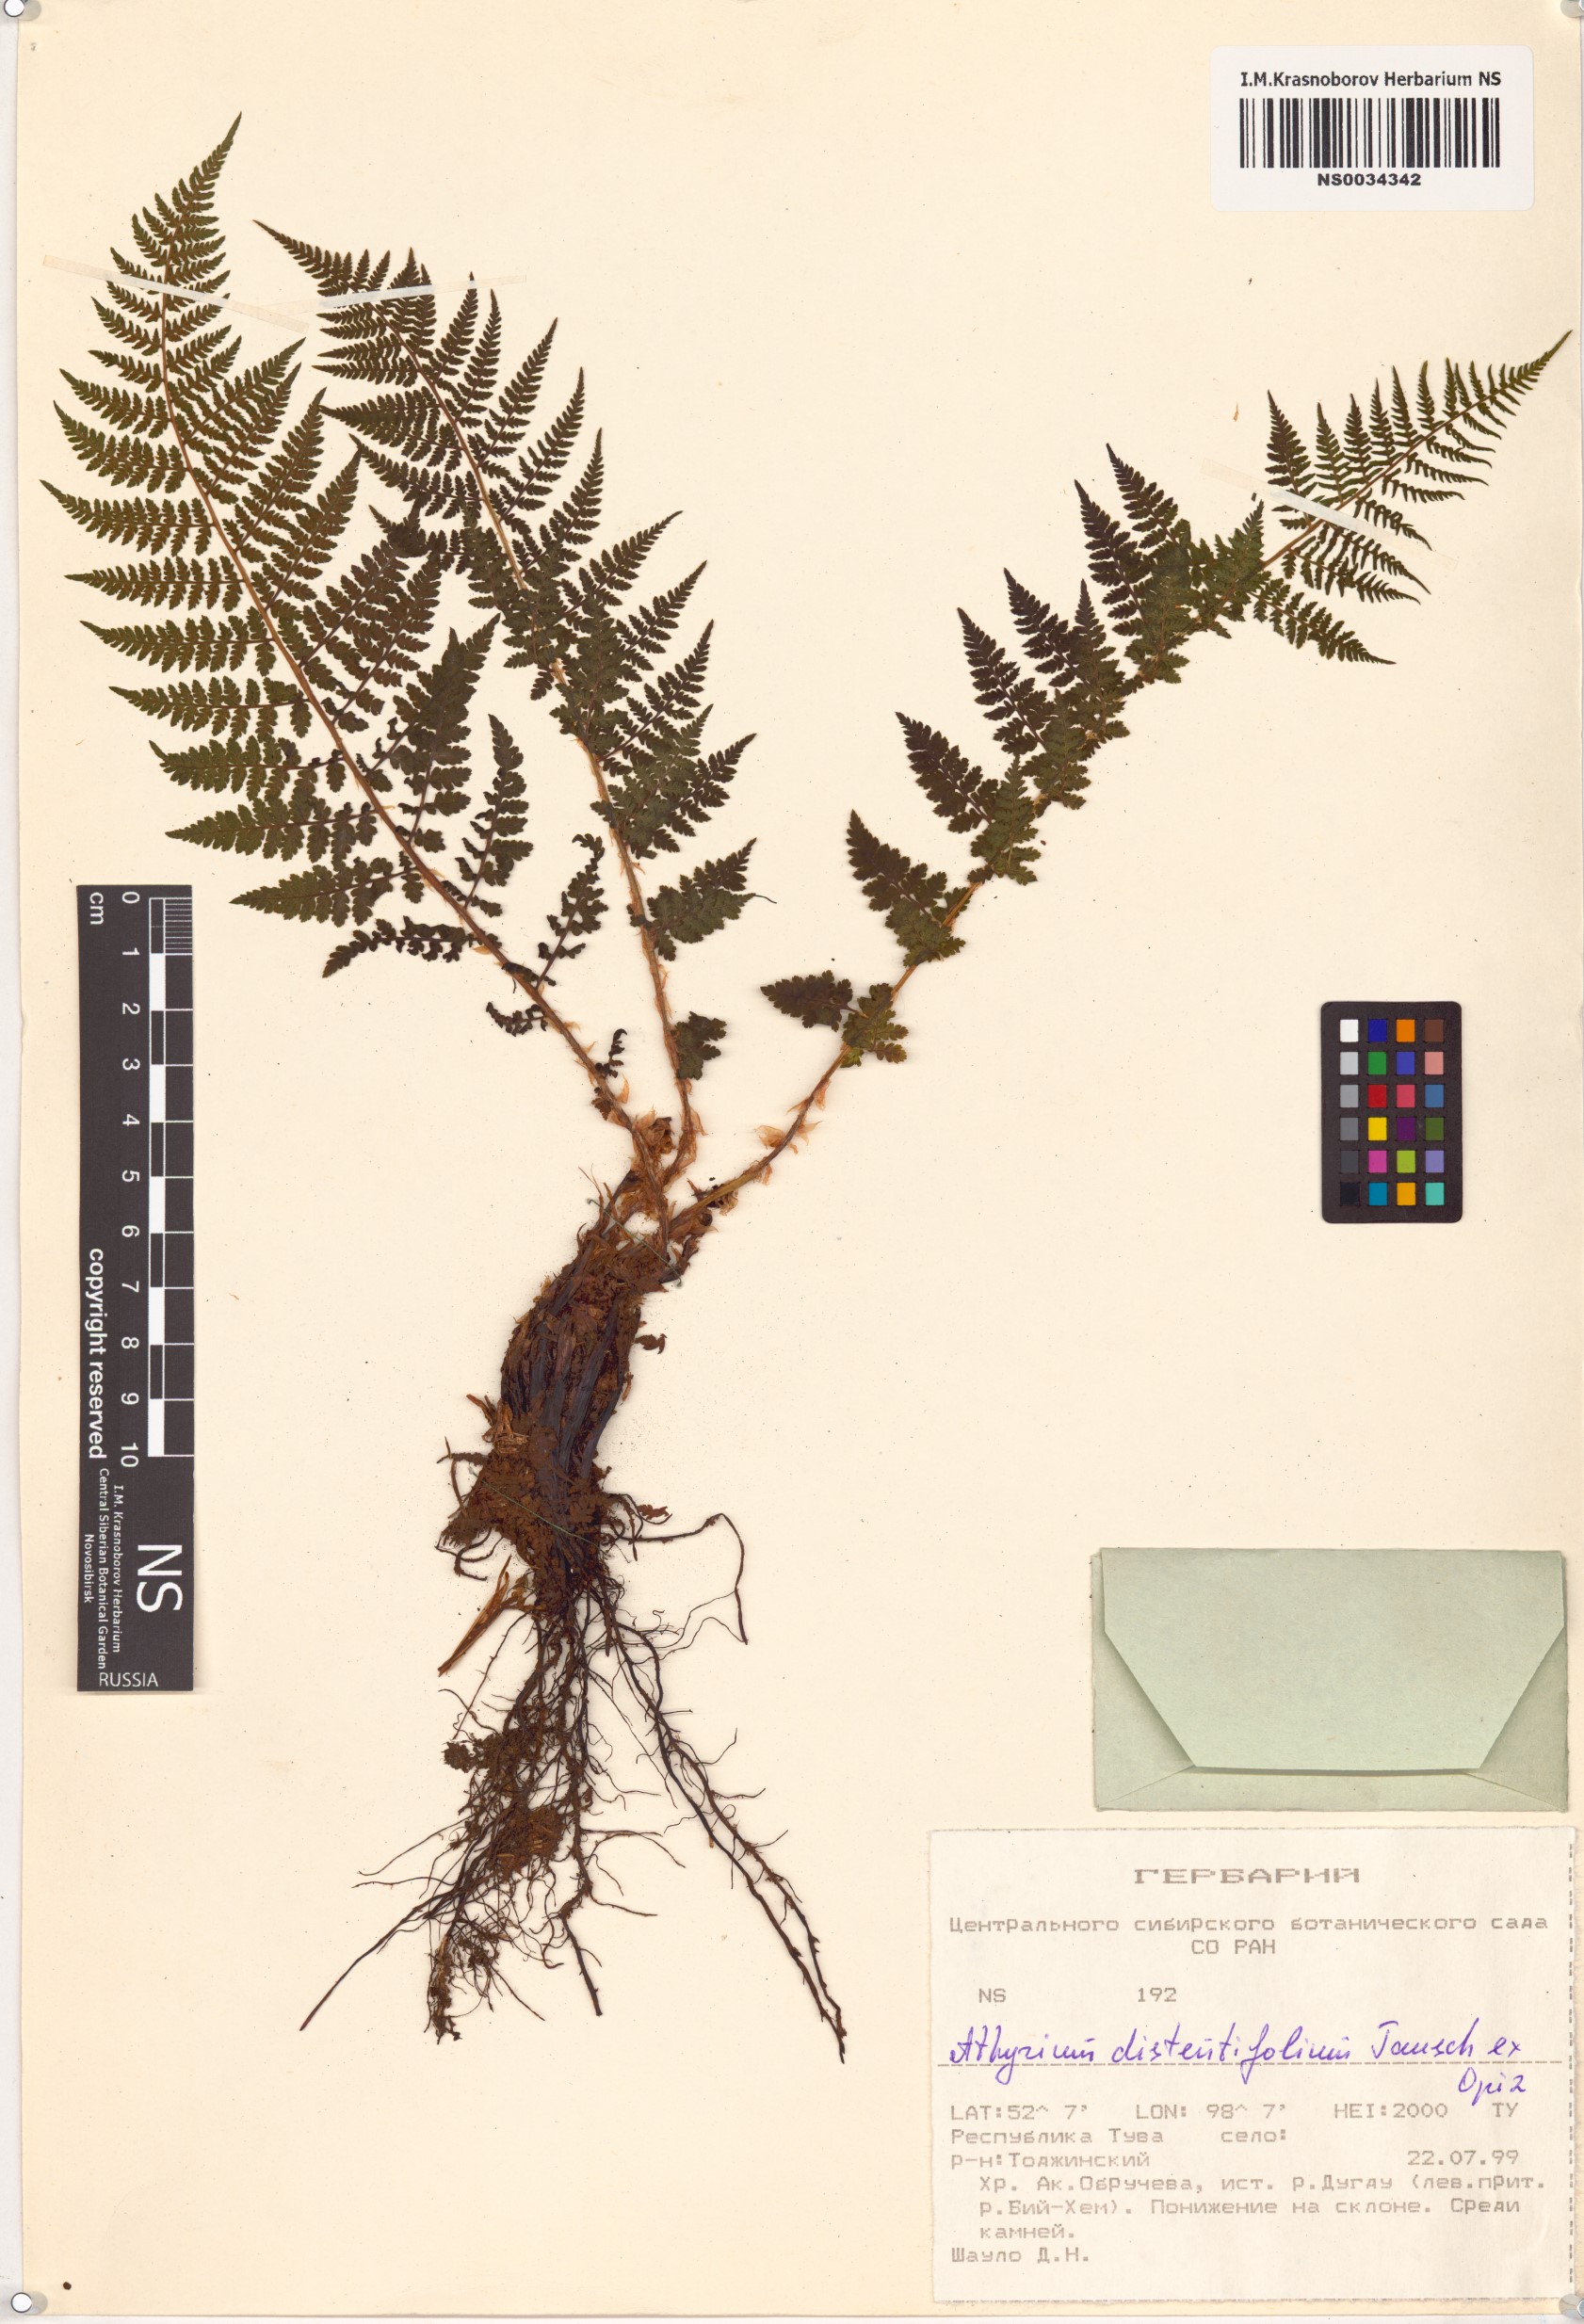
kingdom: Plantae
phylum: Tracheophyta
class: Polypodiopsida
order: Polypodiales
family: Athyriaceae
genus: Pseudathyrium
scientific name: Pseudathyrium alpestre
